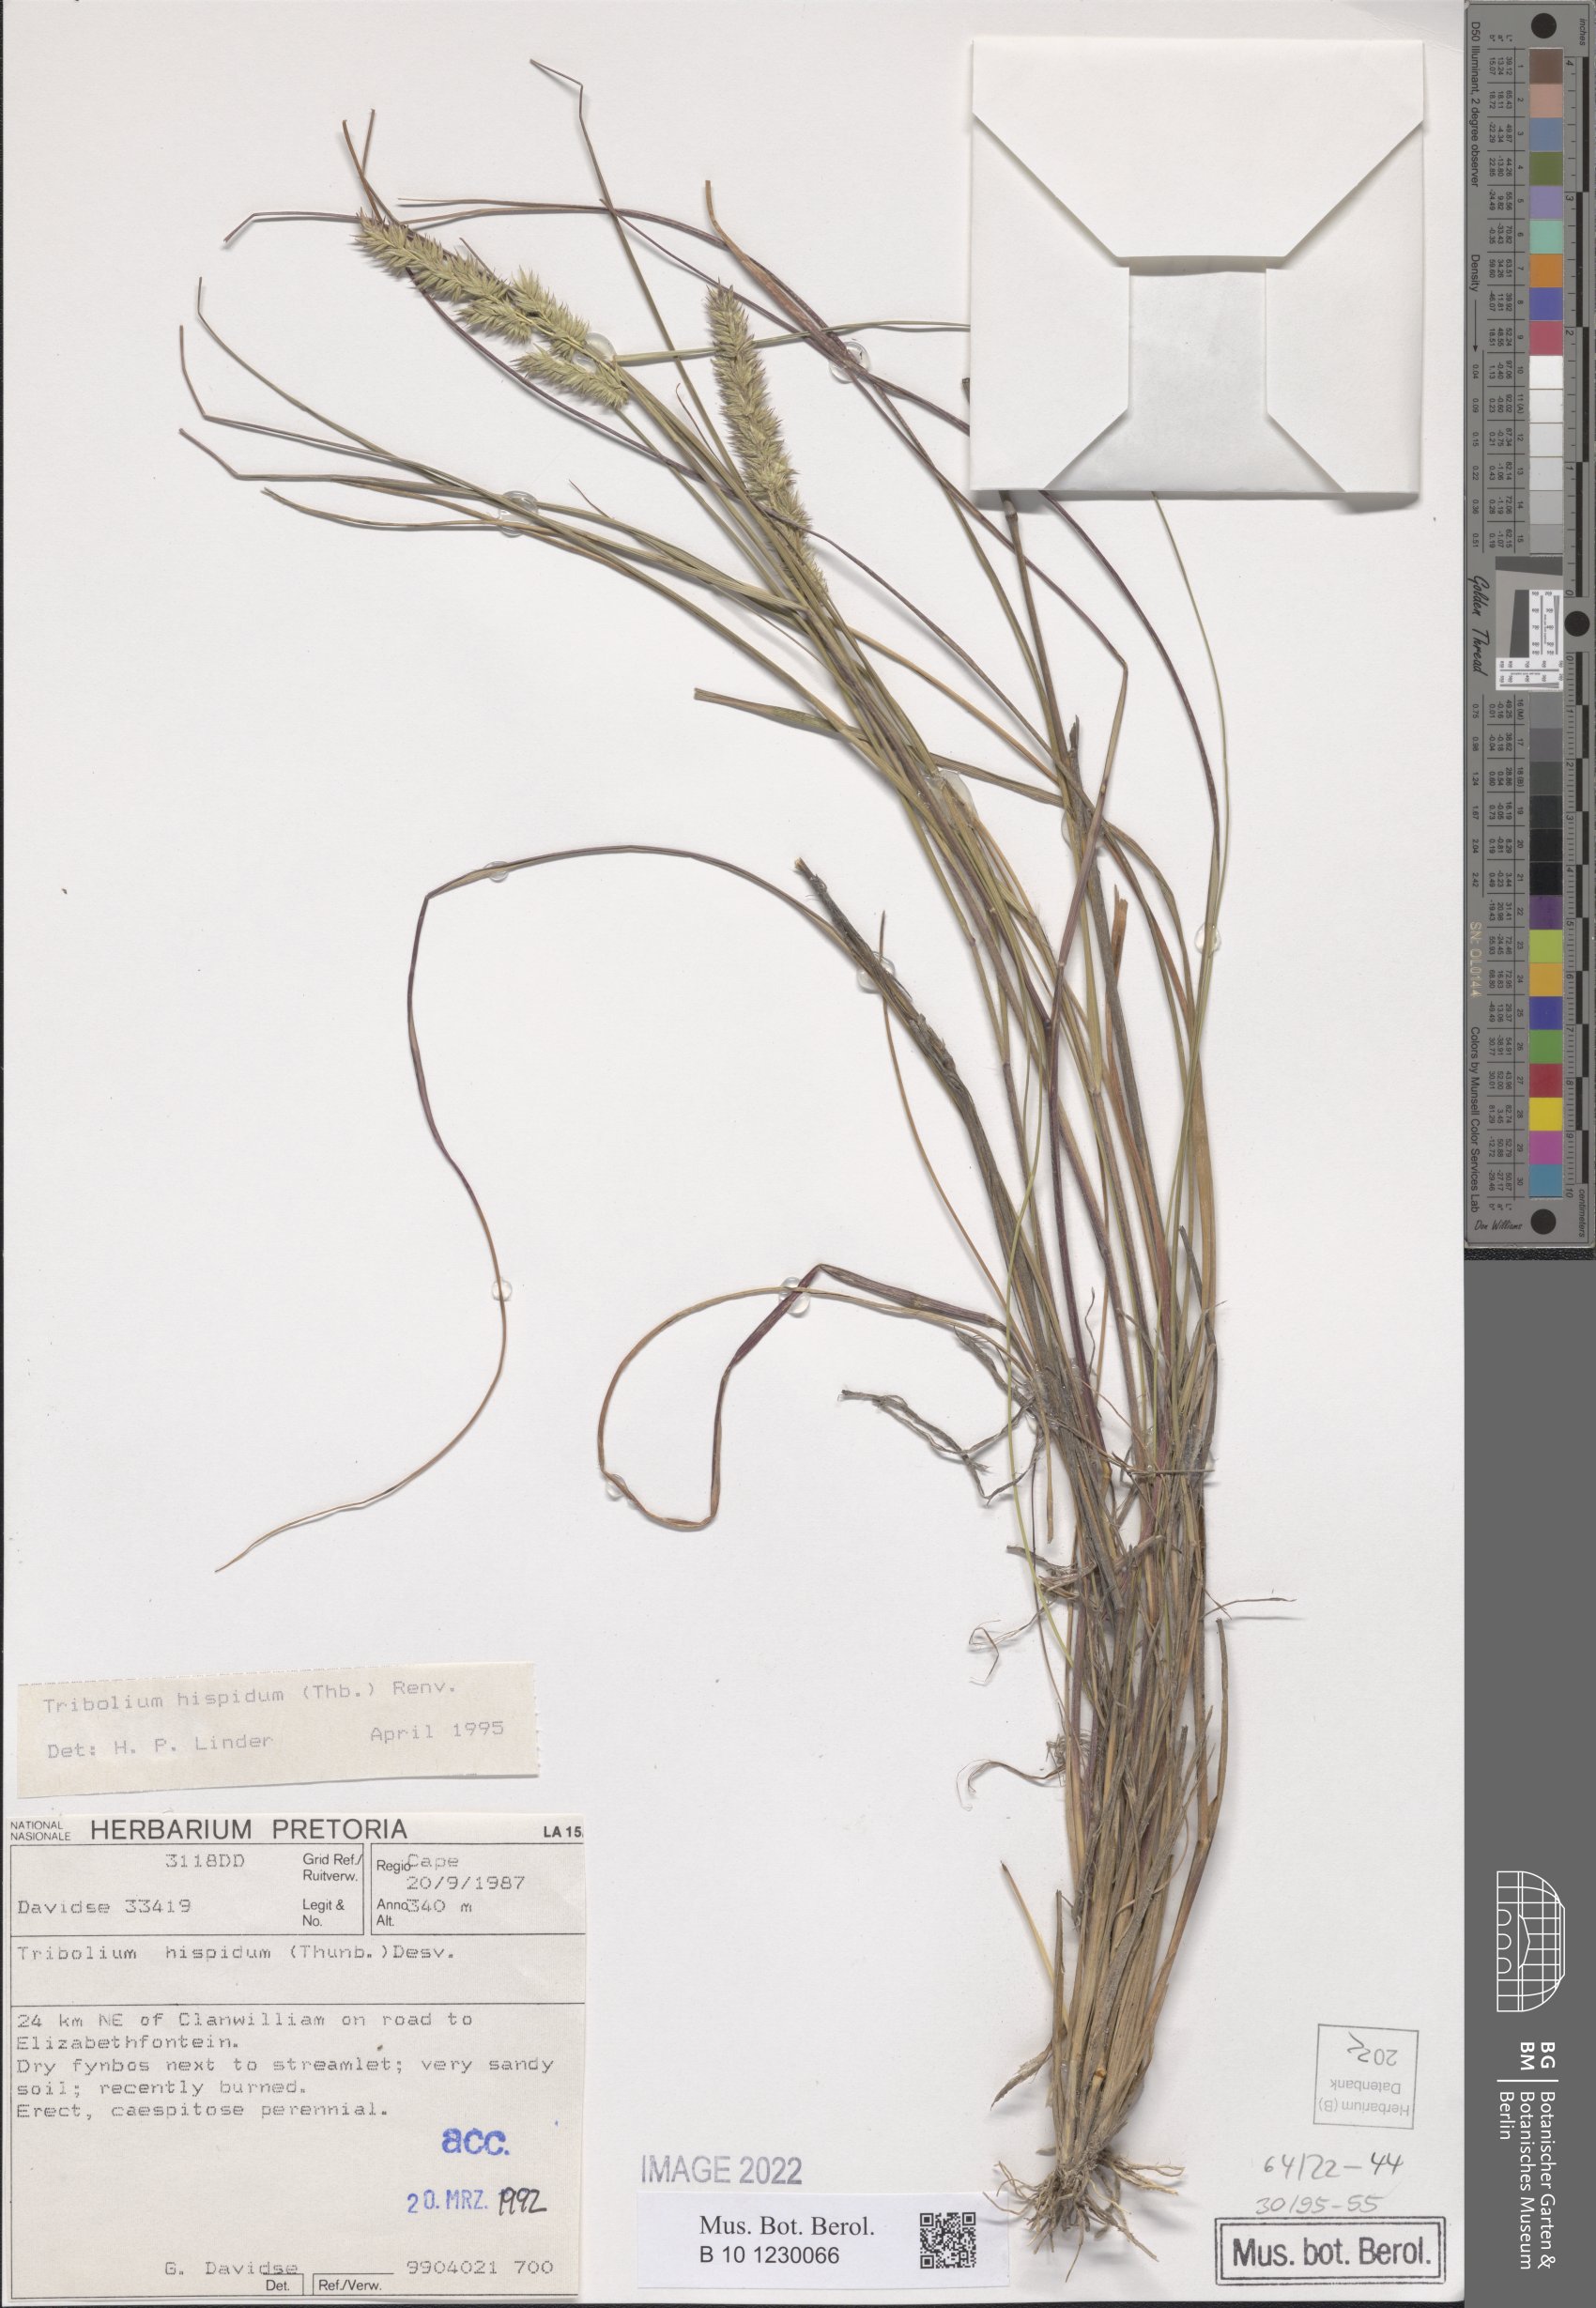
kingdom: Plantae
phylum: Tracheophyta
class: Liliopsida
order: Poales
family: Poaceae
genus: Tribolium
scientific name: Tribolium hispidum
